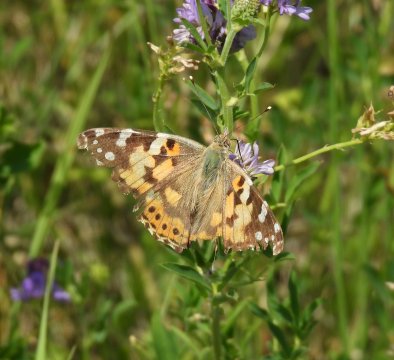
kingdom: Animalia
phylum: Arthropoda
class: Insecta
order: Lepidoptera
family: Nymphalidae
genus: Vanessa
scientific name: Vanessa cardui
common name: Painted Lady
